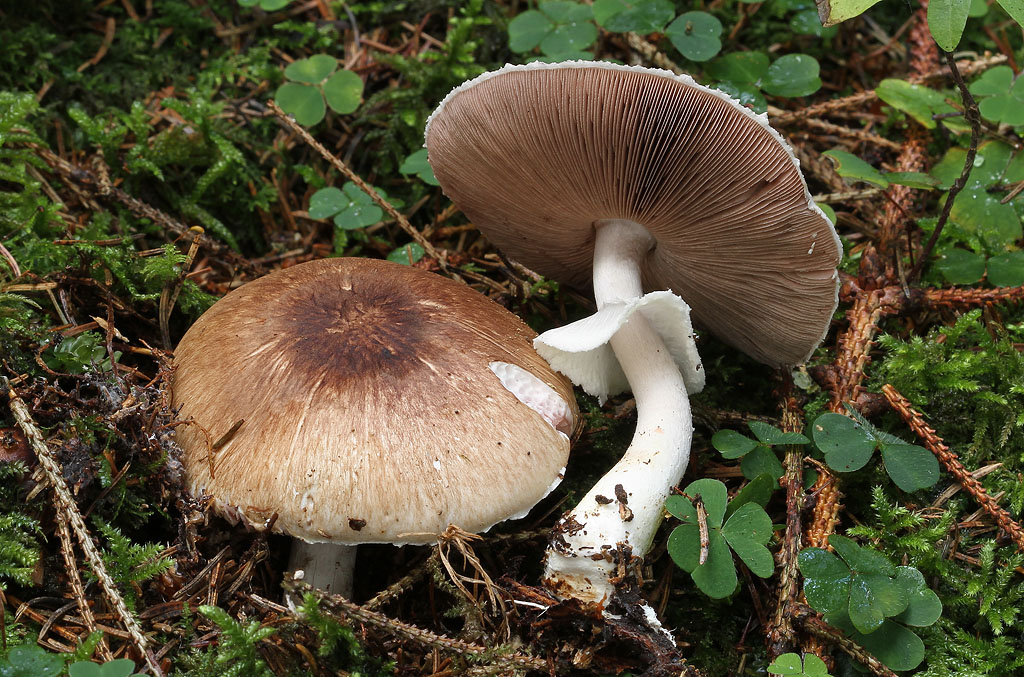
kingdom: Fungi
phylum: Basidiomycota
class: Agaricomycetes
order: Agaricales
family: Agaricaceae
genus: Agaricus
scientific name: Agaricus impudicus
